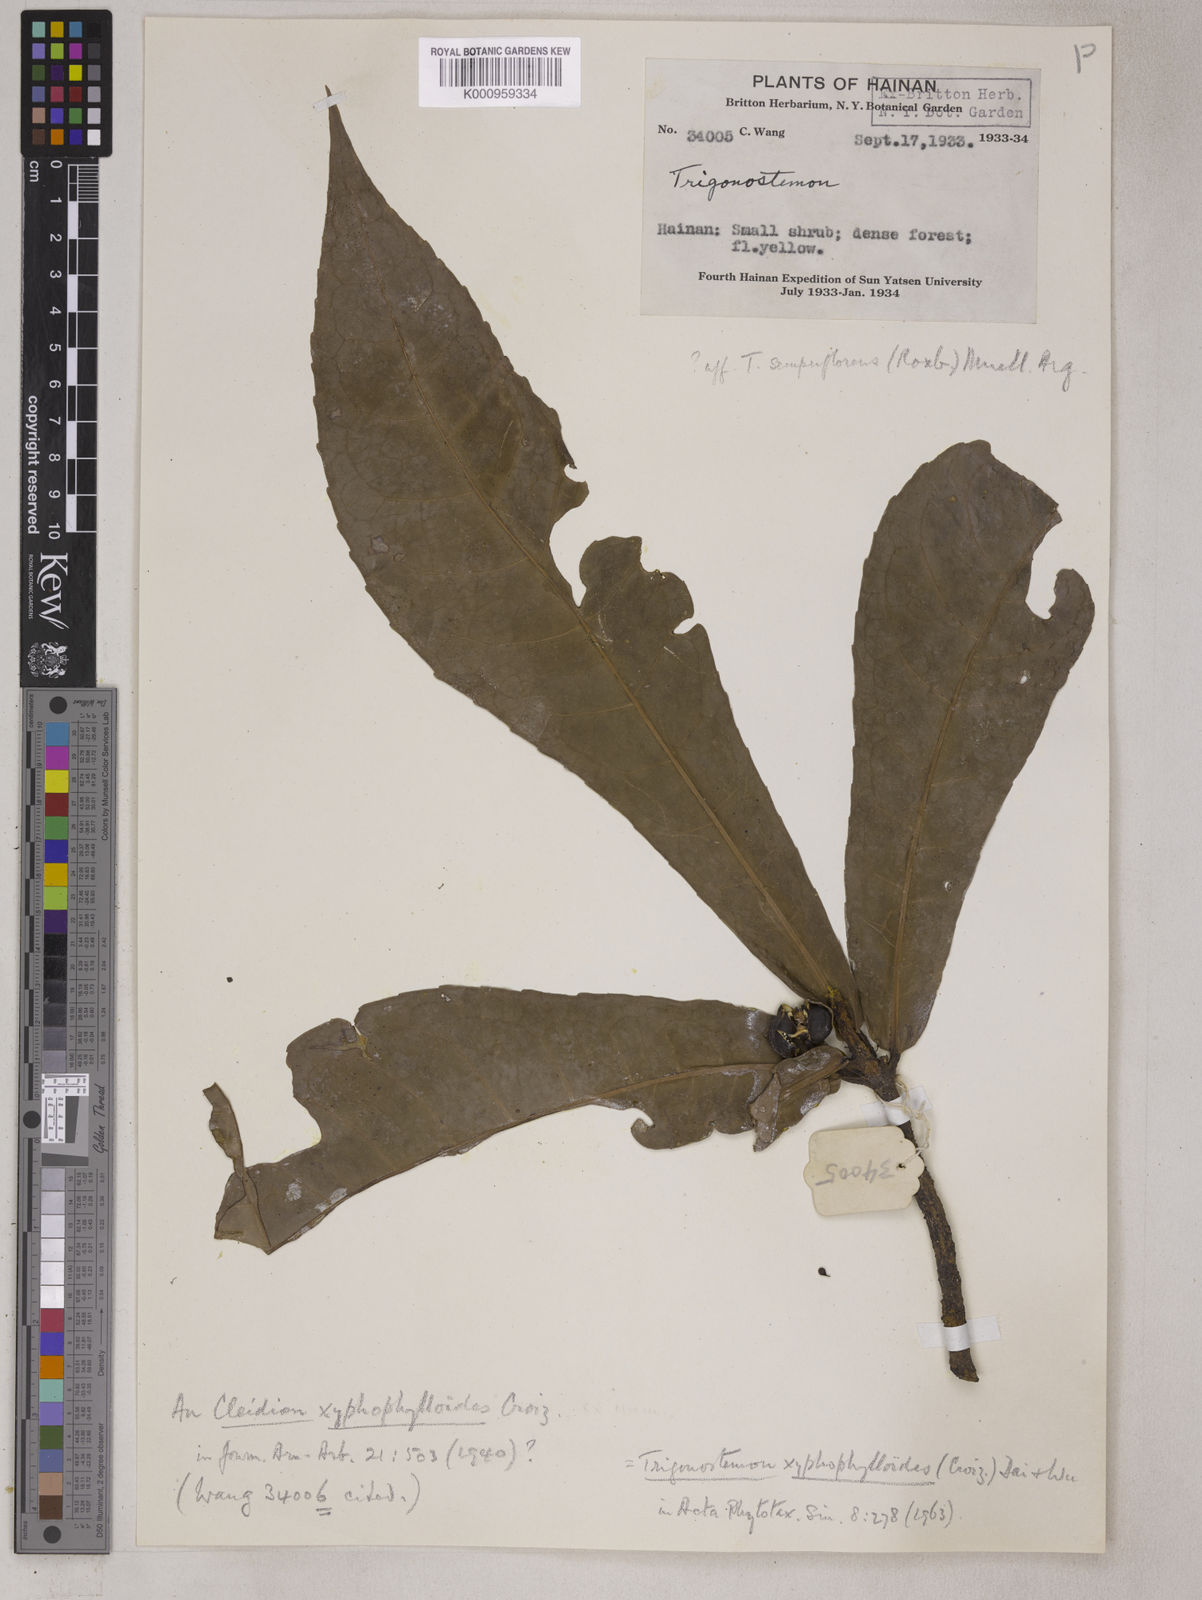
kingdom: Plantae
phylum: Tracheophyta
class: Magnoliopsida
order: Malpighiales
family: Euphorbiaceae
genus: Trigonostemon
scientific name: Trigonostemon xyphophylloides
